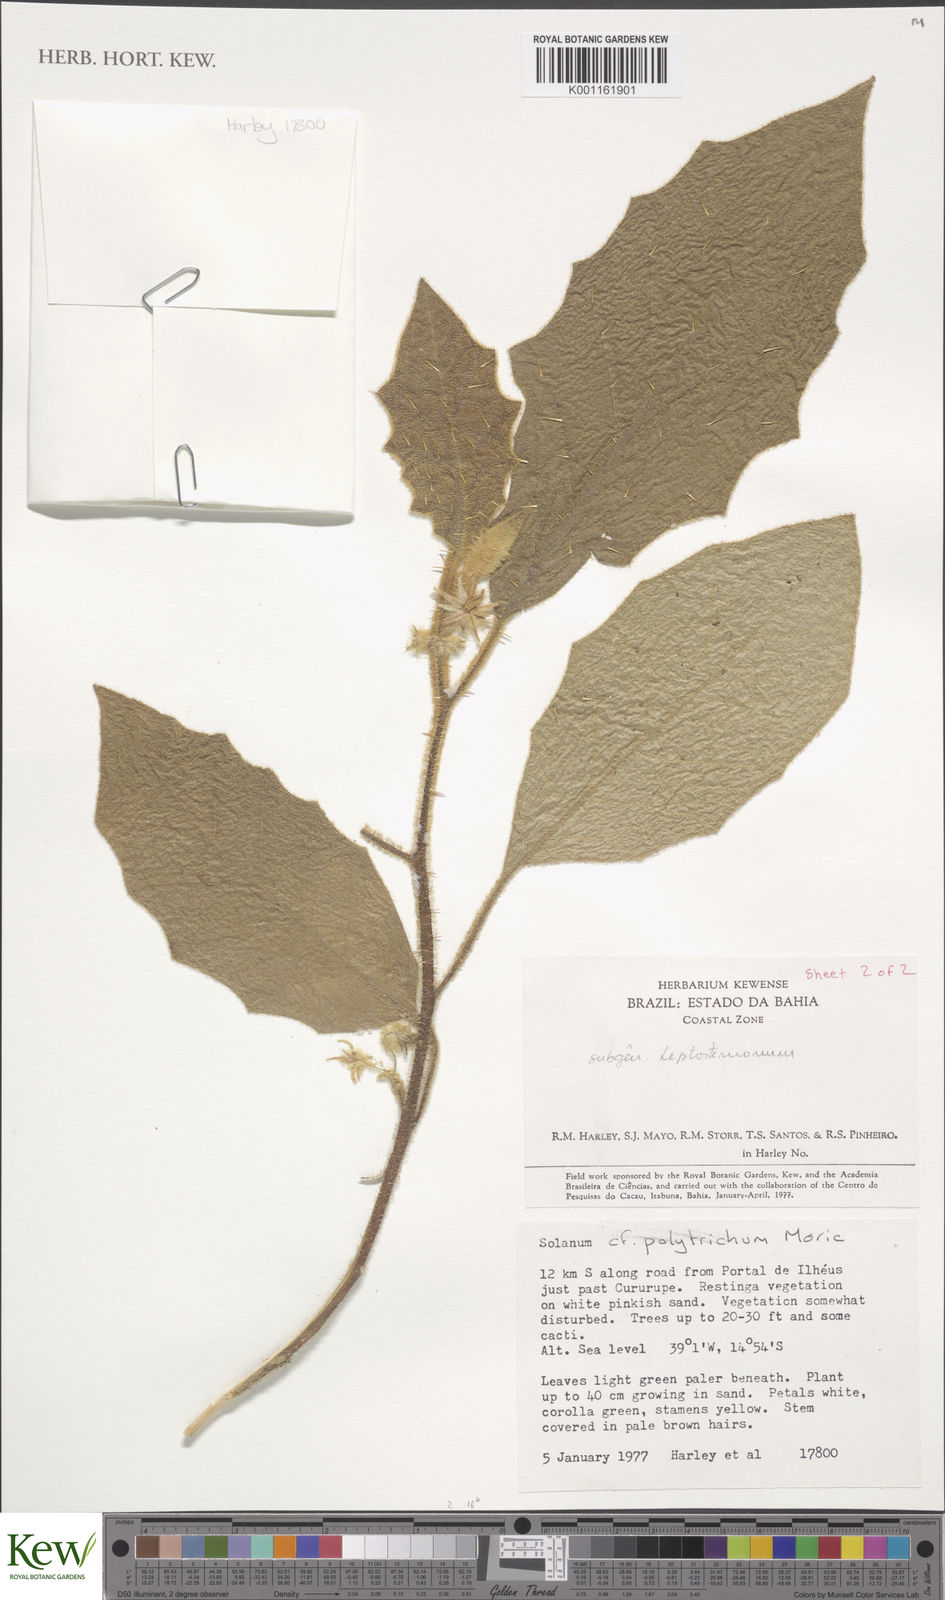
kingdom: Plantae
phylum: Tracheophyta
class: Magnoliopsida
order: Solanales
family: Solanaceae
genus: Solanum
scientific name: Solanum polytrichum
